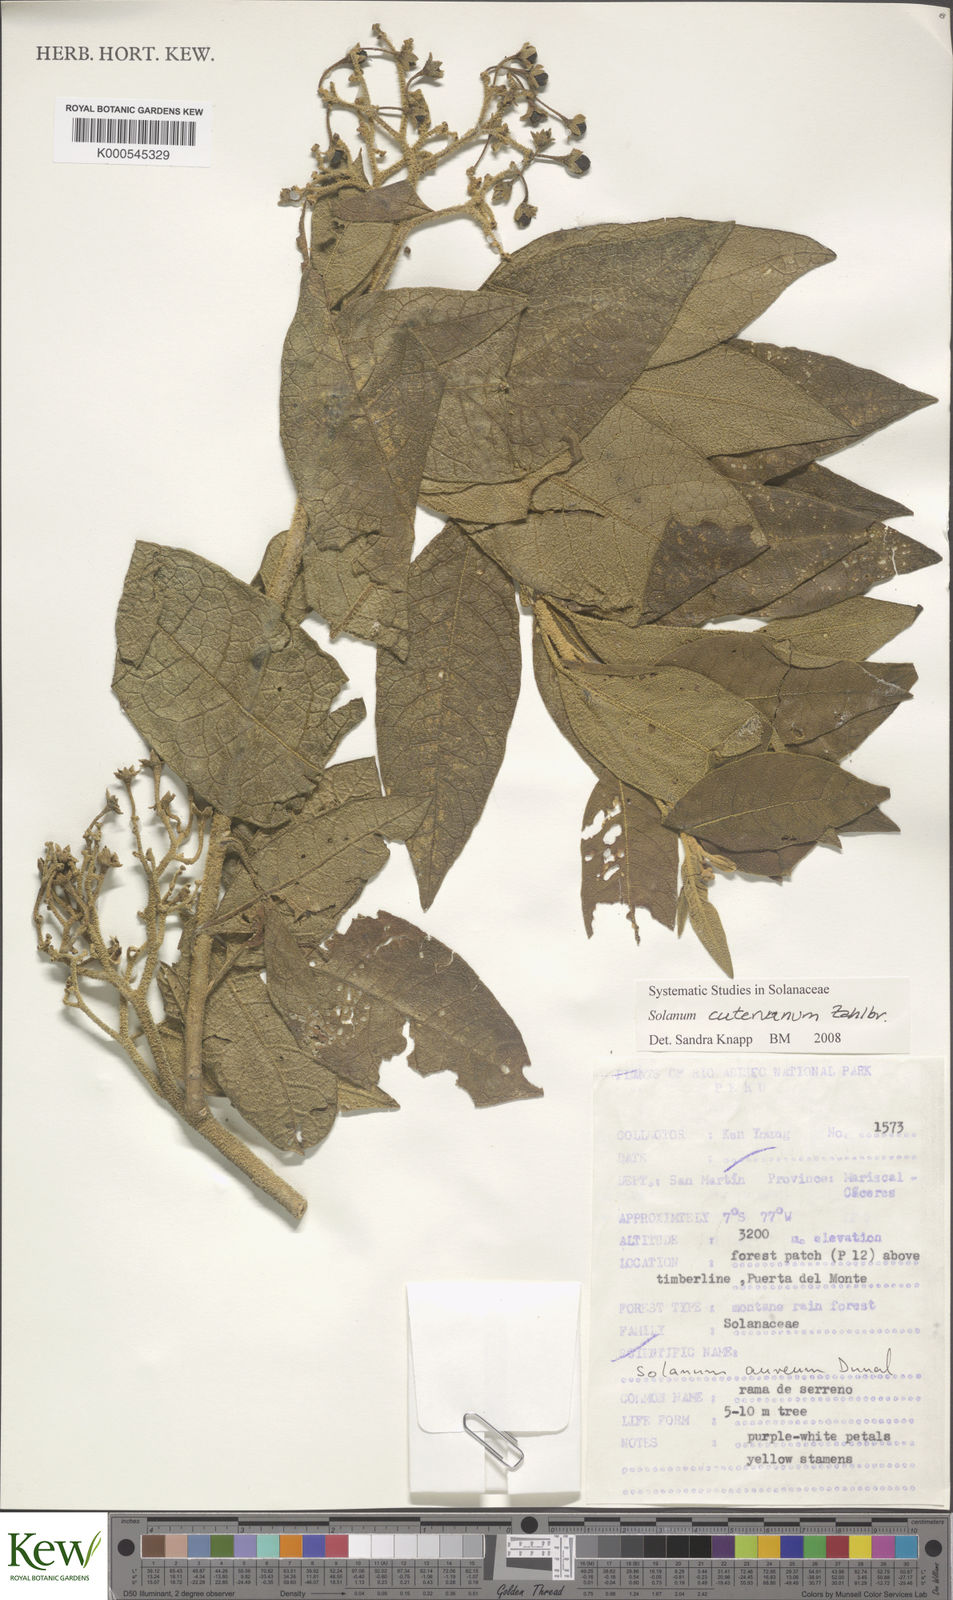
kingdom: Plantae
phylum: Tracheophyta
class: Magnoliopsida
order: Solanales
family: Solanaceae
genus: Solanum
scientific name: Solanum cutervanum
